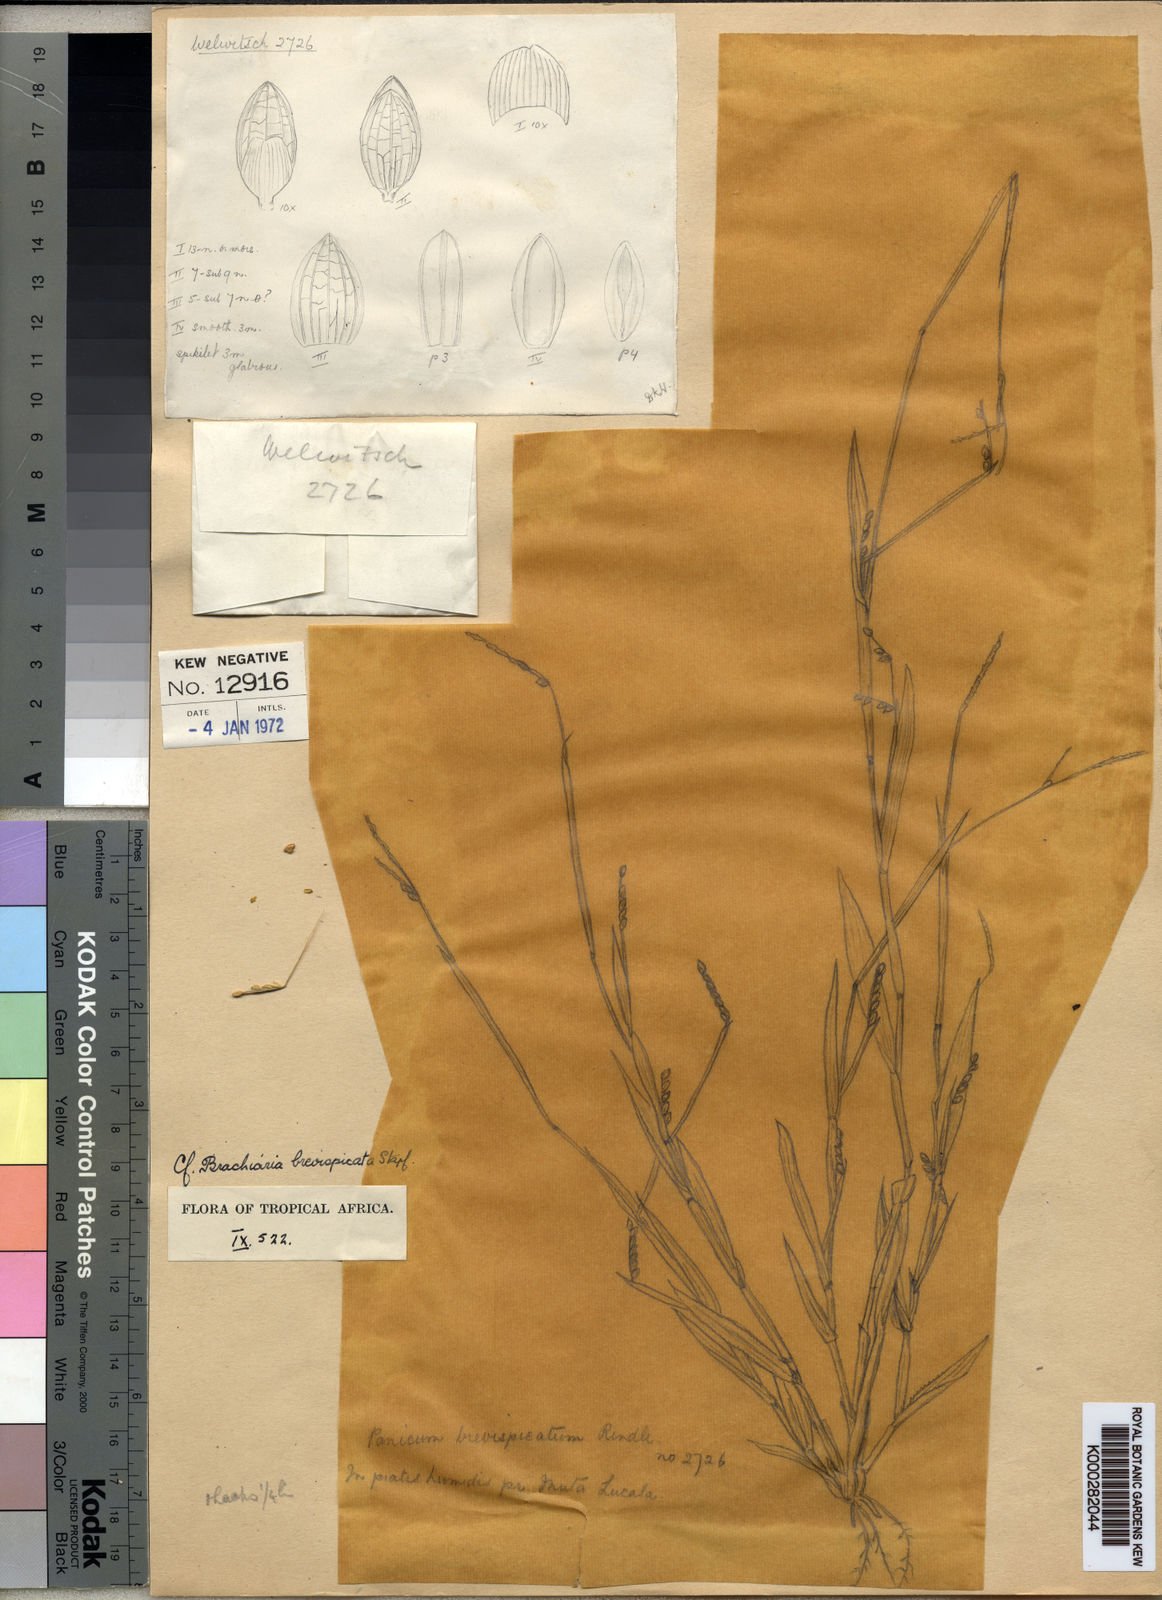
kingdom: Plantae
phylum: Tracheophyta
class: Liliopsida
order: Poales
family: Poaceae
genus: Urochloa
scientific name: Urochloa brevispicata
